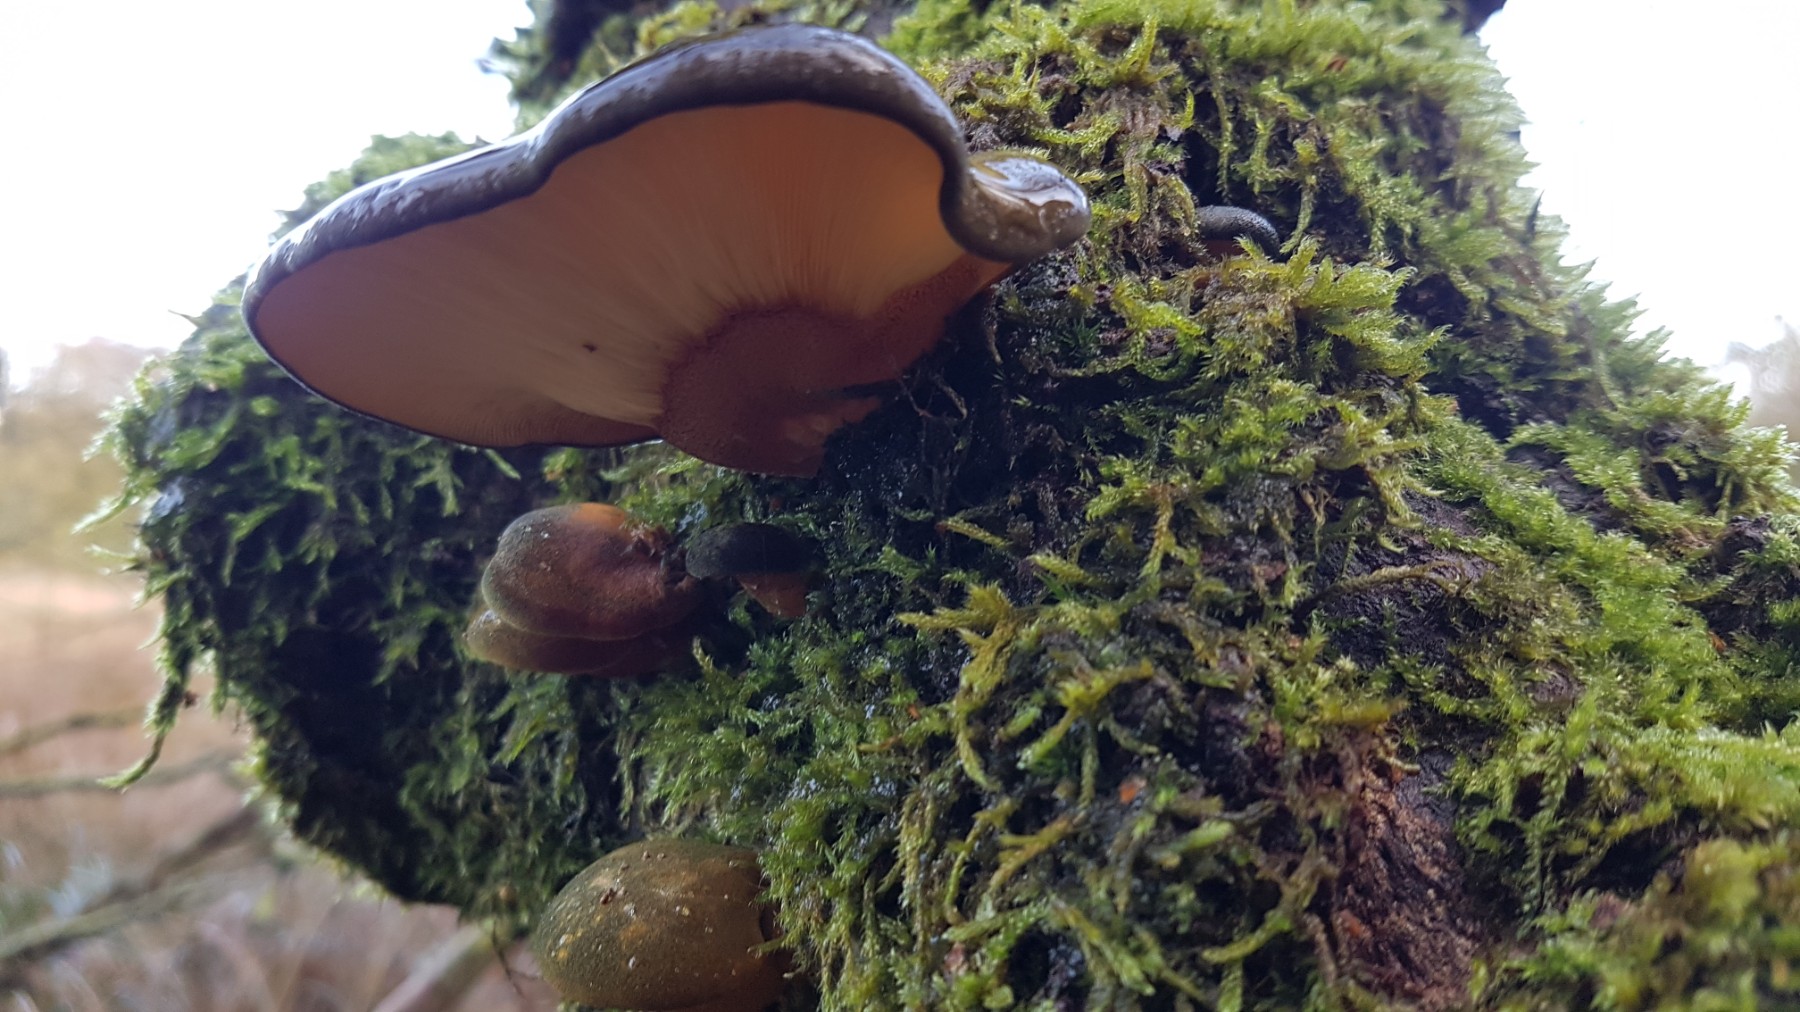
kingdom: Fungi
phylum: Basidiomycota
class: Agaricomycetes
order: Agaricales
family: Sarcomyxaceae
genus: Sarcomyxa
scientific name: Sarcomyxa serotina
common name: gummihat
